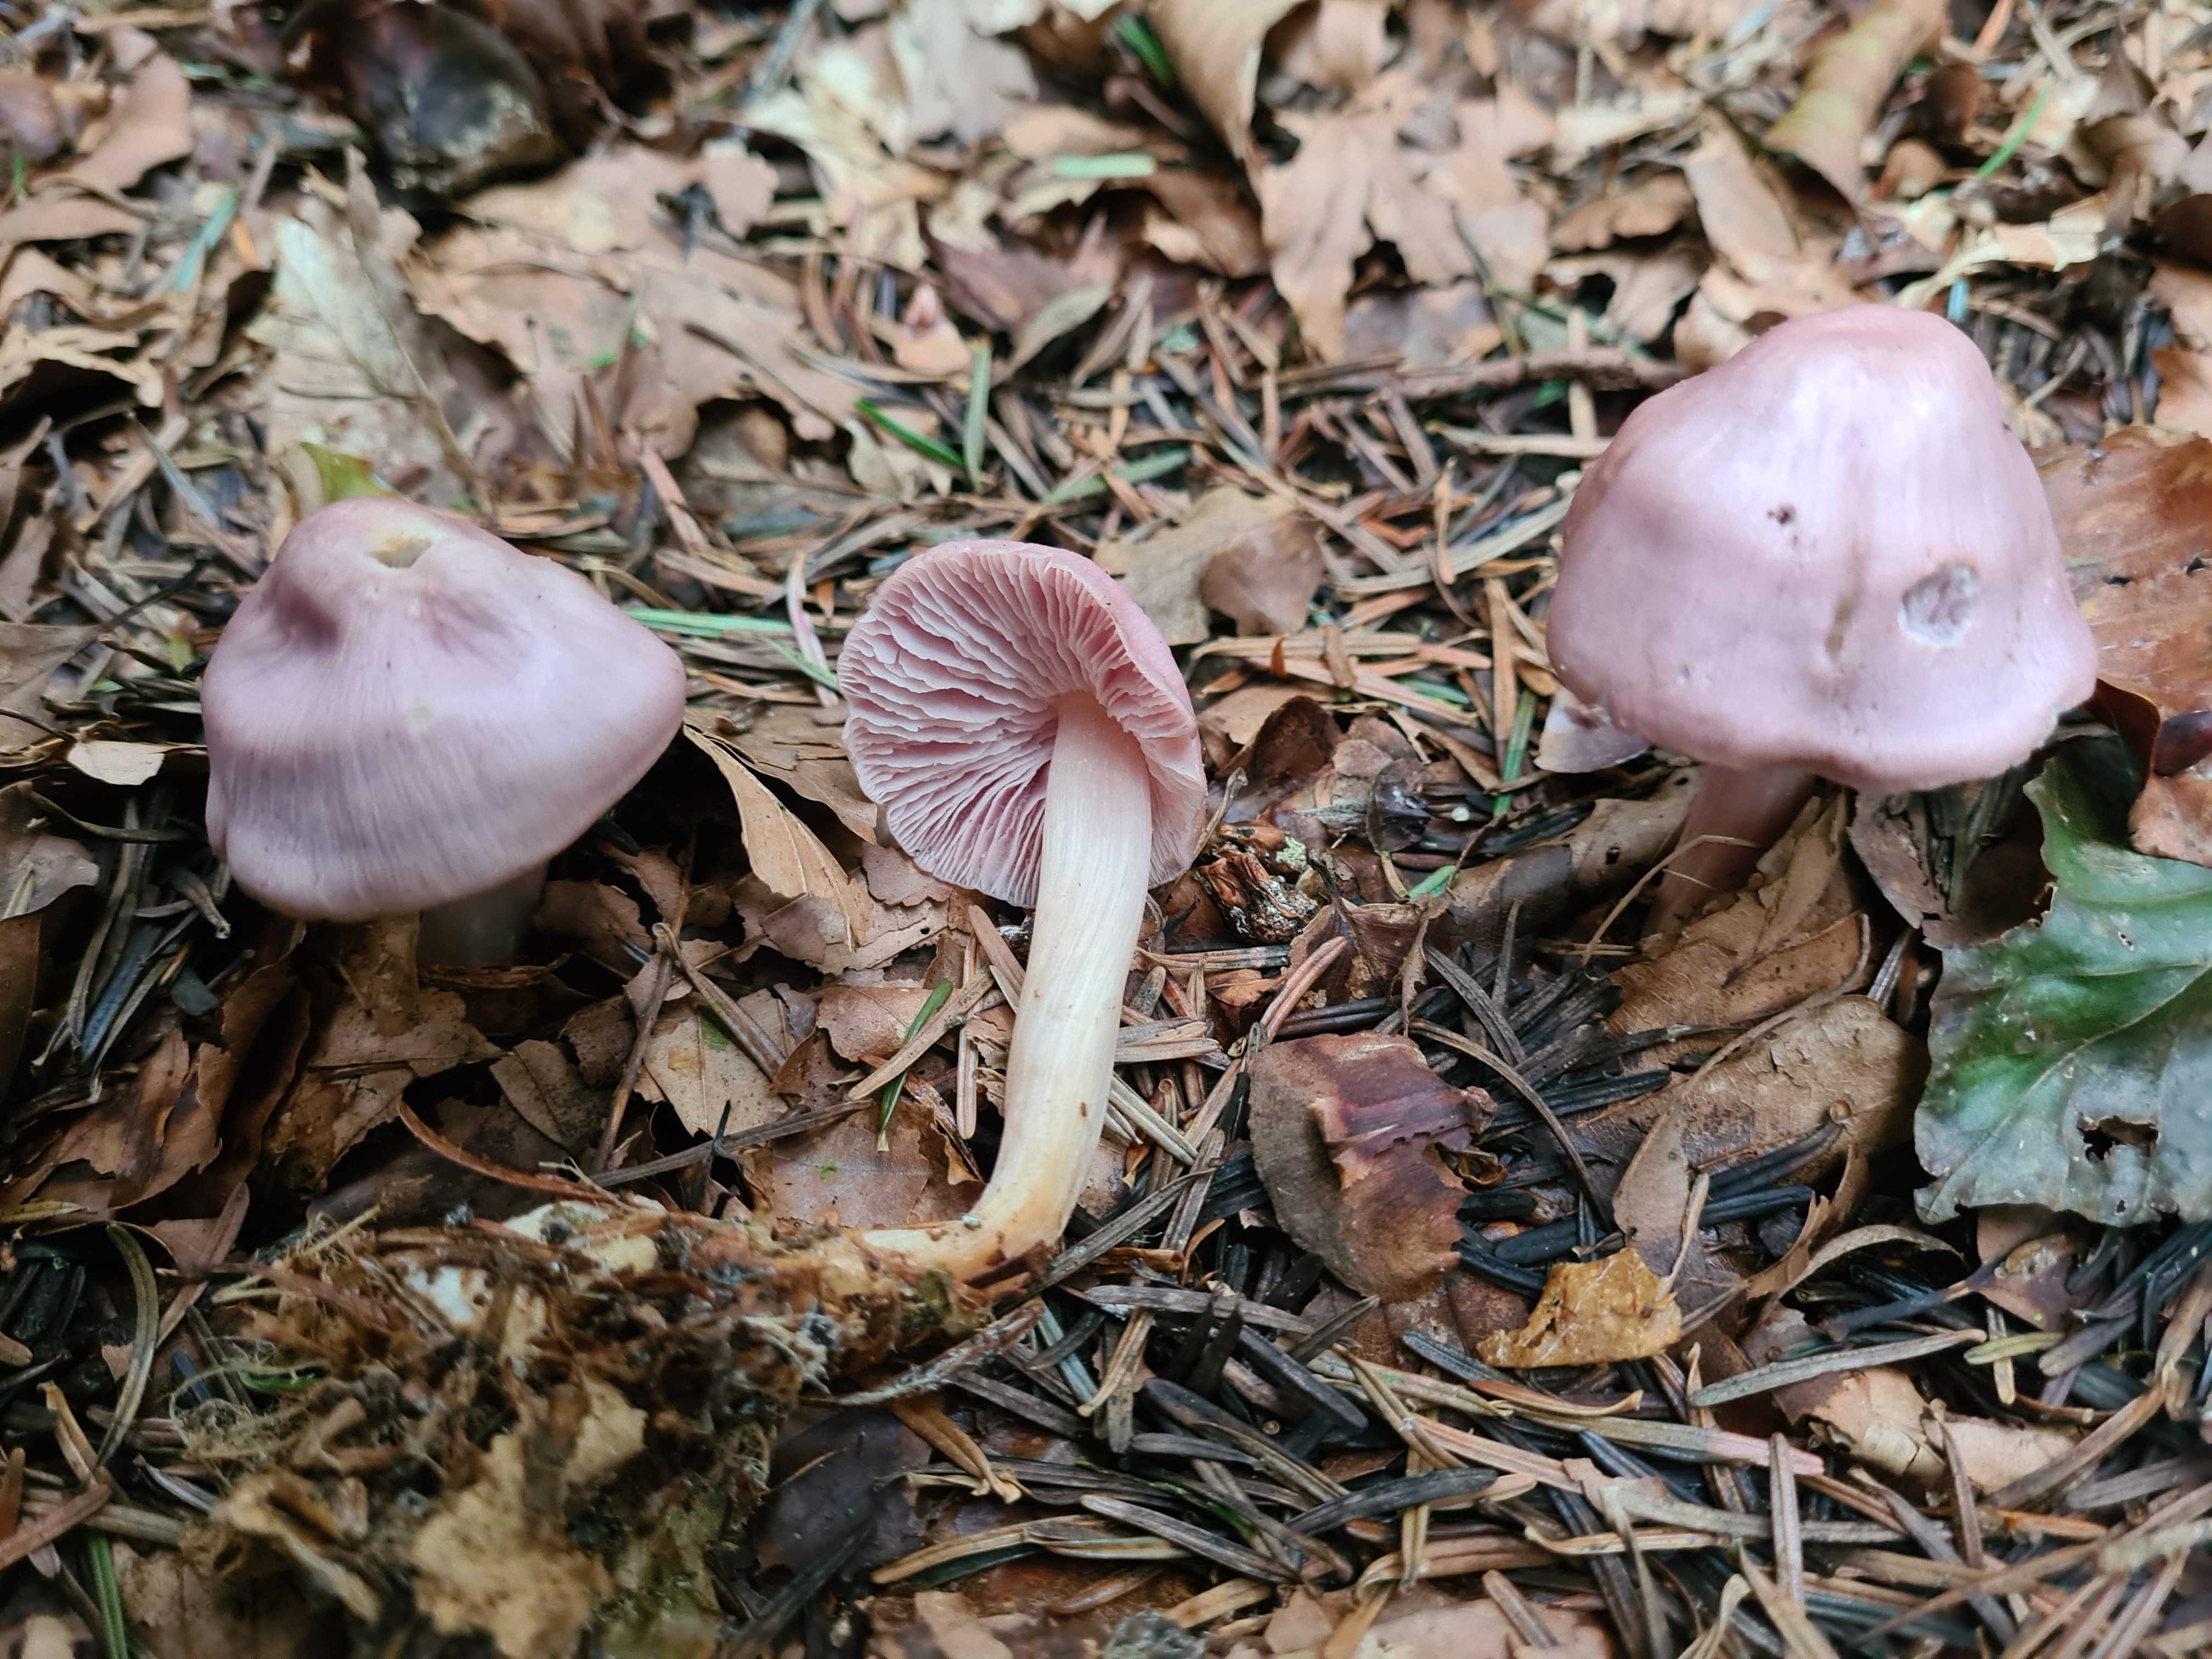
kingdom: Fungi
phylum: Basidiomycota
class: Agaricomycetes
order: Agaricales
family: Mycenaceae
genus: Mycena
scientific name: Mycena rosea
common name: rosa huesvamp
